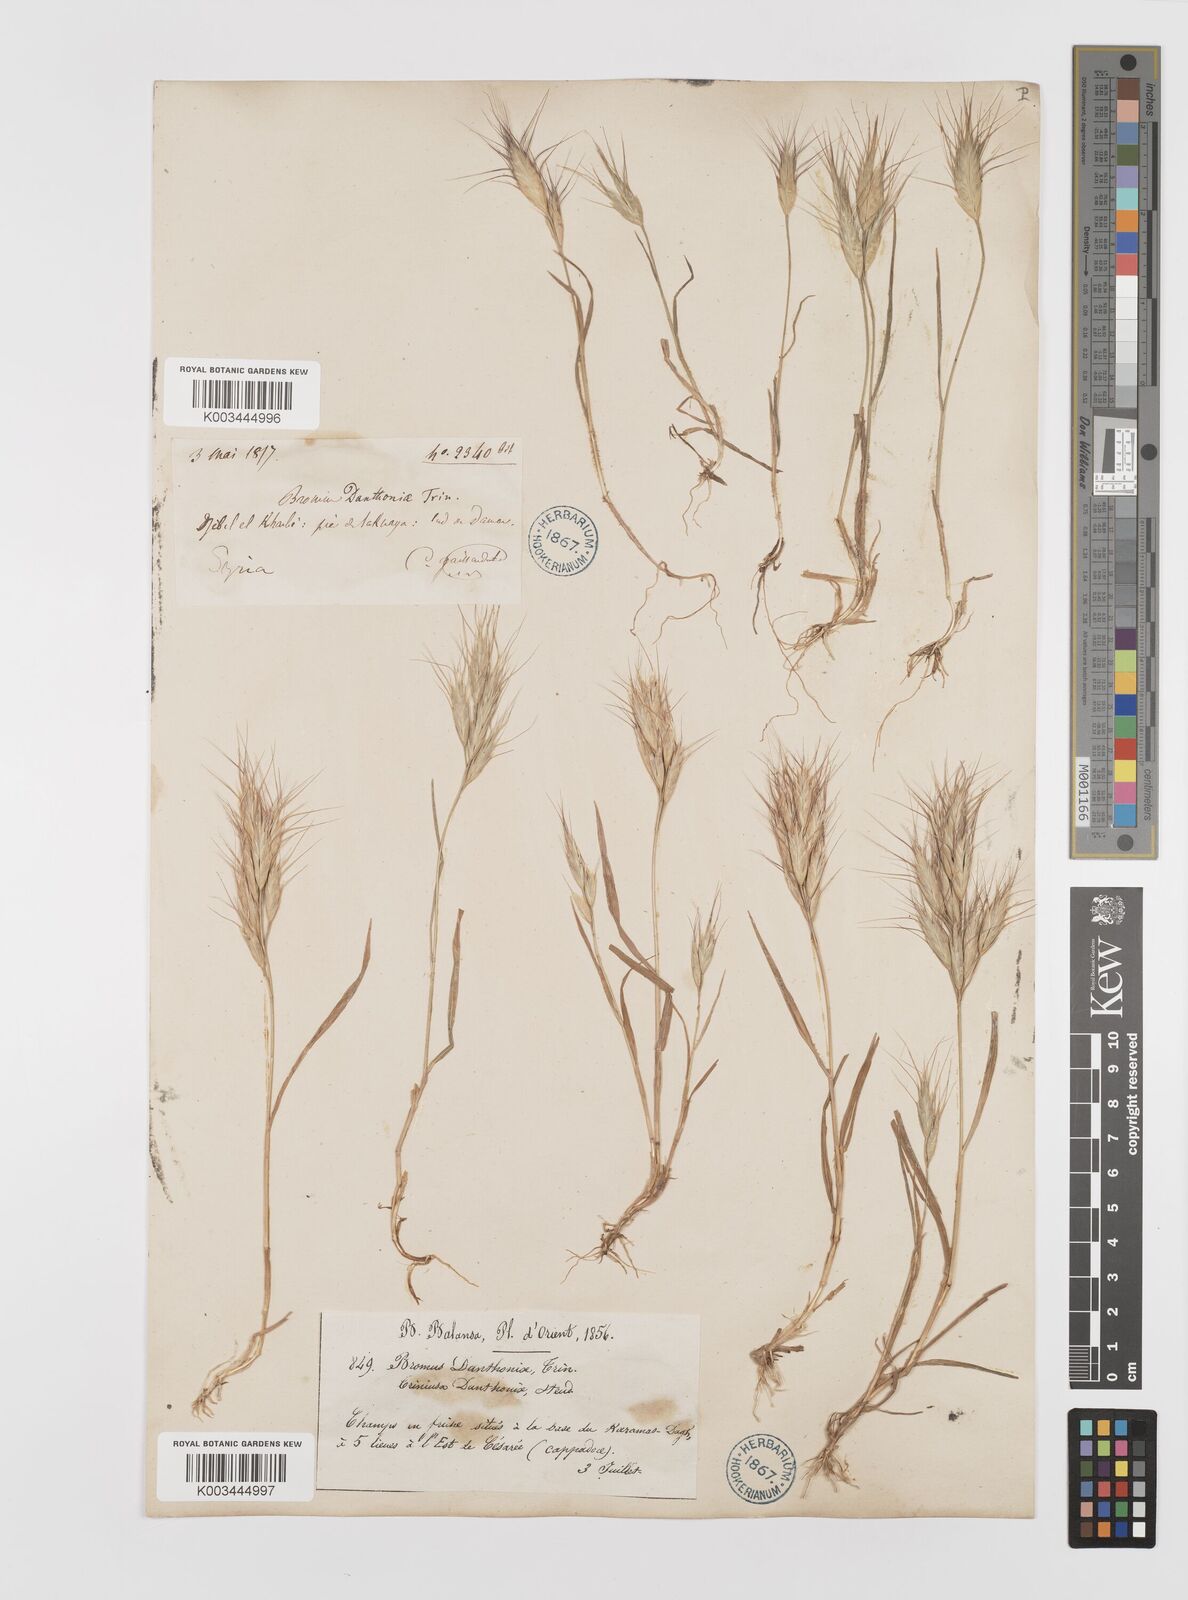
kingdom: Plantae
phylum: Tracheophyta
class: Liliopsida
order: Poales
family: Poaceae
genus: Bromus
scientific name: Bromus danthoniae
